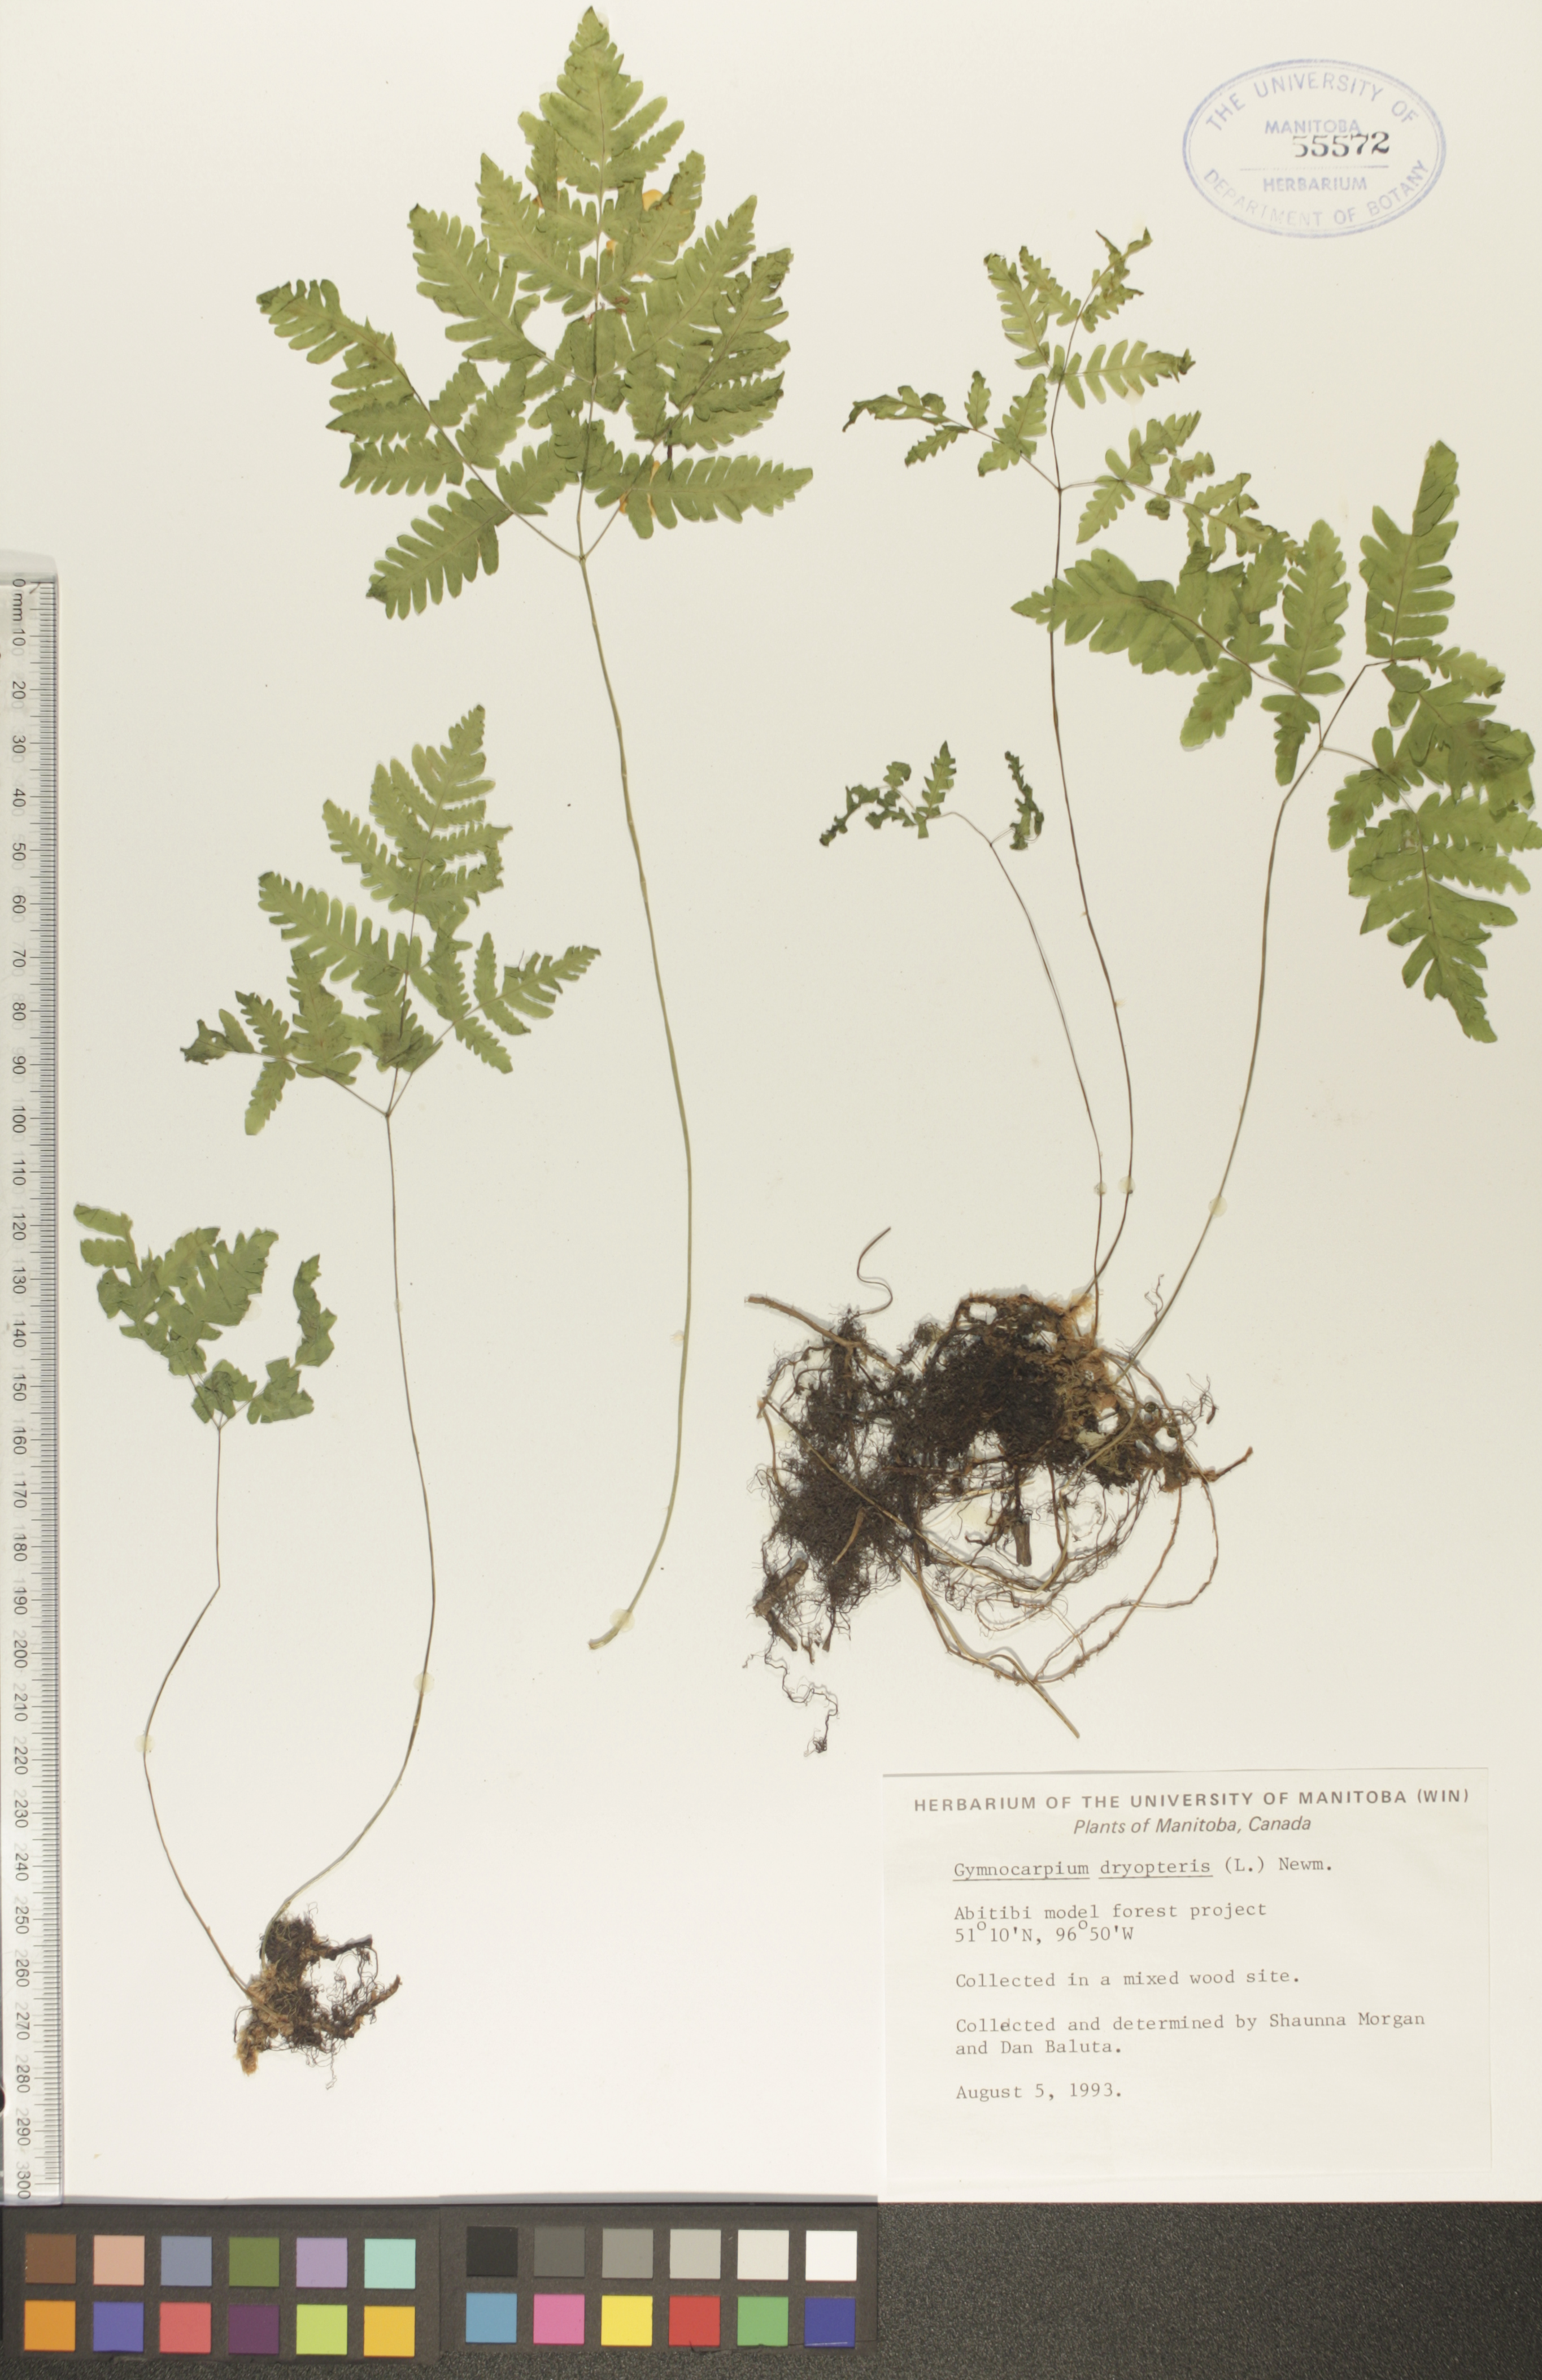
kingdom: Plantae
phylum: Tracheophyta
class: Polypodiopsida
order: Polypodiales
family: Cystopteridaceae
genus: Gymnocarpium
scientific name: Gymnocarpium dryopteris
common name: Oak fern
